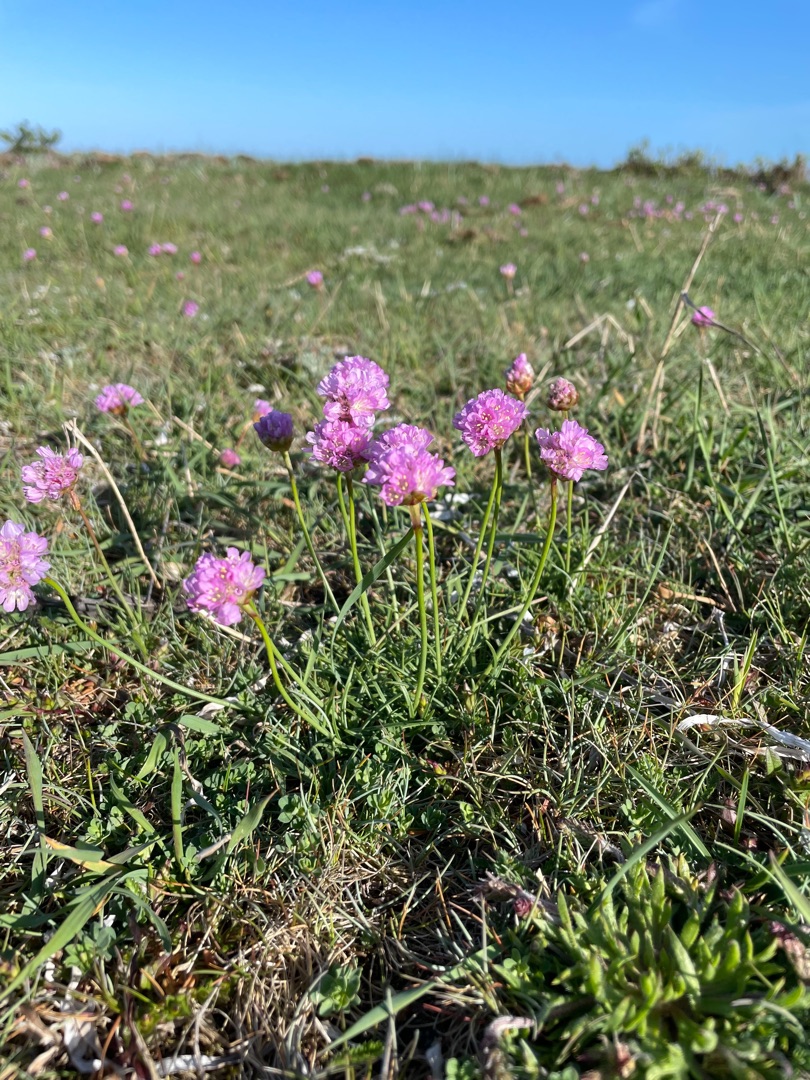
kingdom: Plantae
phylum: Tracheophyta
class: Magnoliopsida
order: Caryophyllales
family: Plumbaginaceae
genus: Armeria
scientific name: Armeria maritima
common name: Engelskgræs
